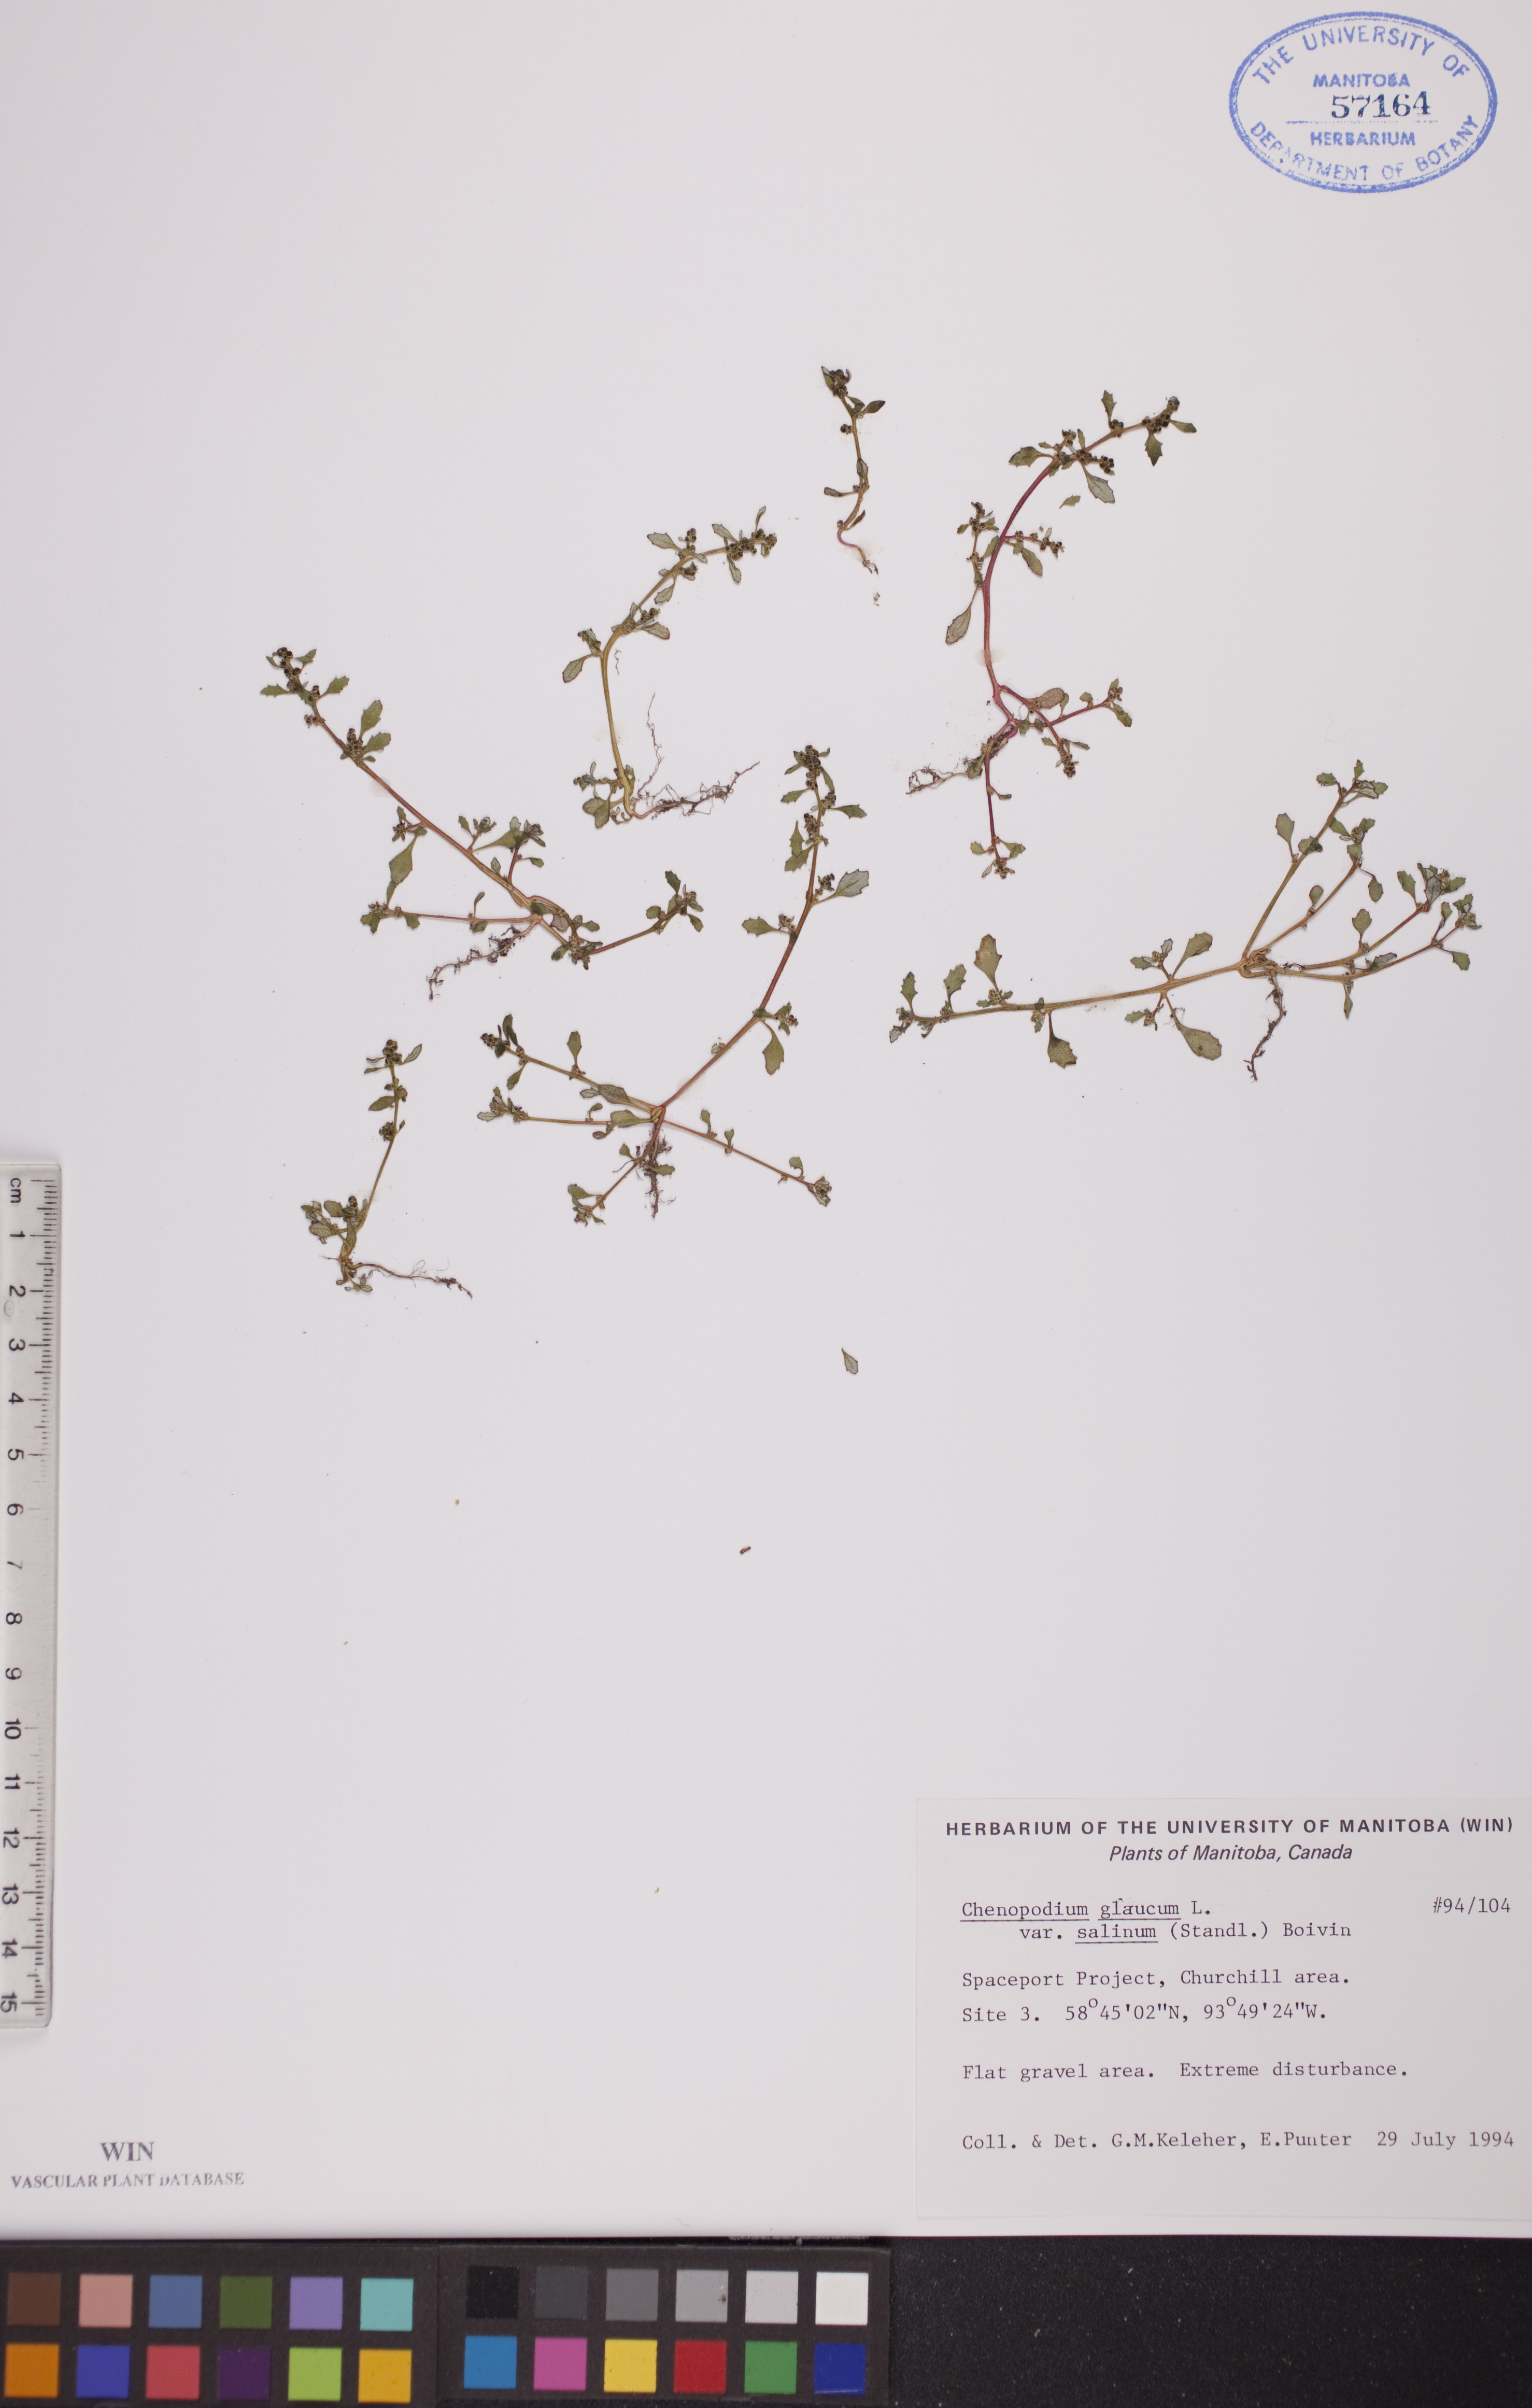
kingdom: Plantae
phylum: Tracheophyta
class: Magnoliopsida
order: Caryophyllales
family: Amaranthaceae
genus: Oxybasis
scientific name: Oxybasis salina
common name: Rocky mountain goosefoot
